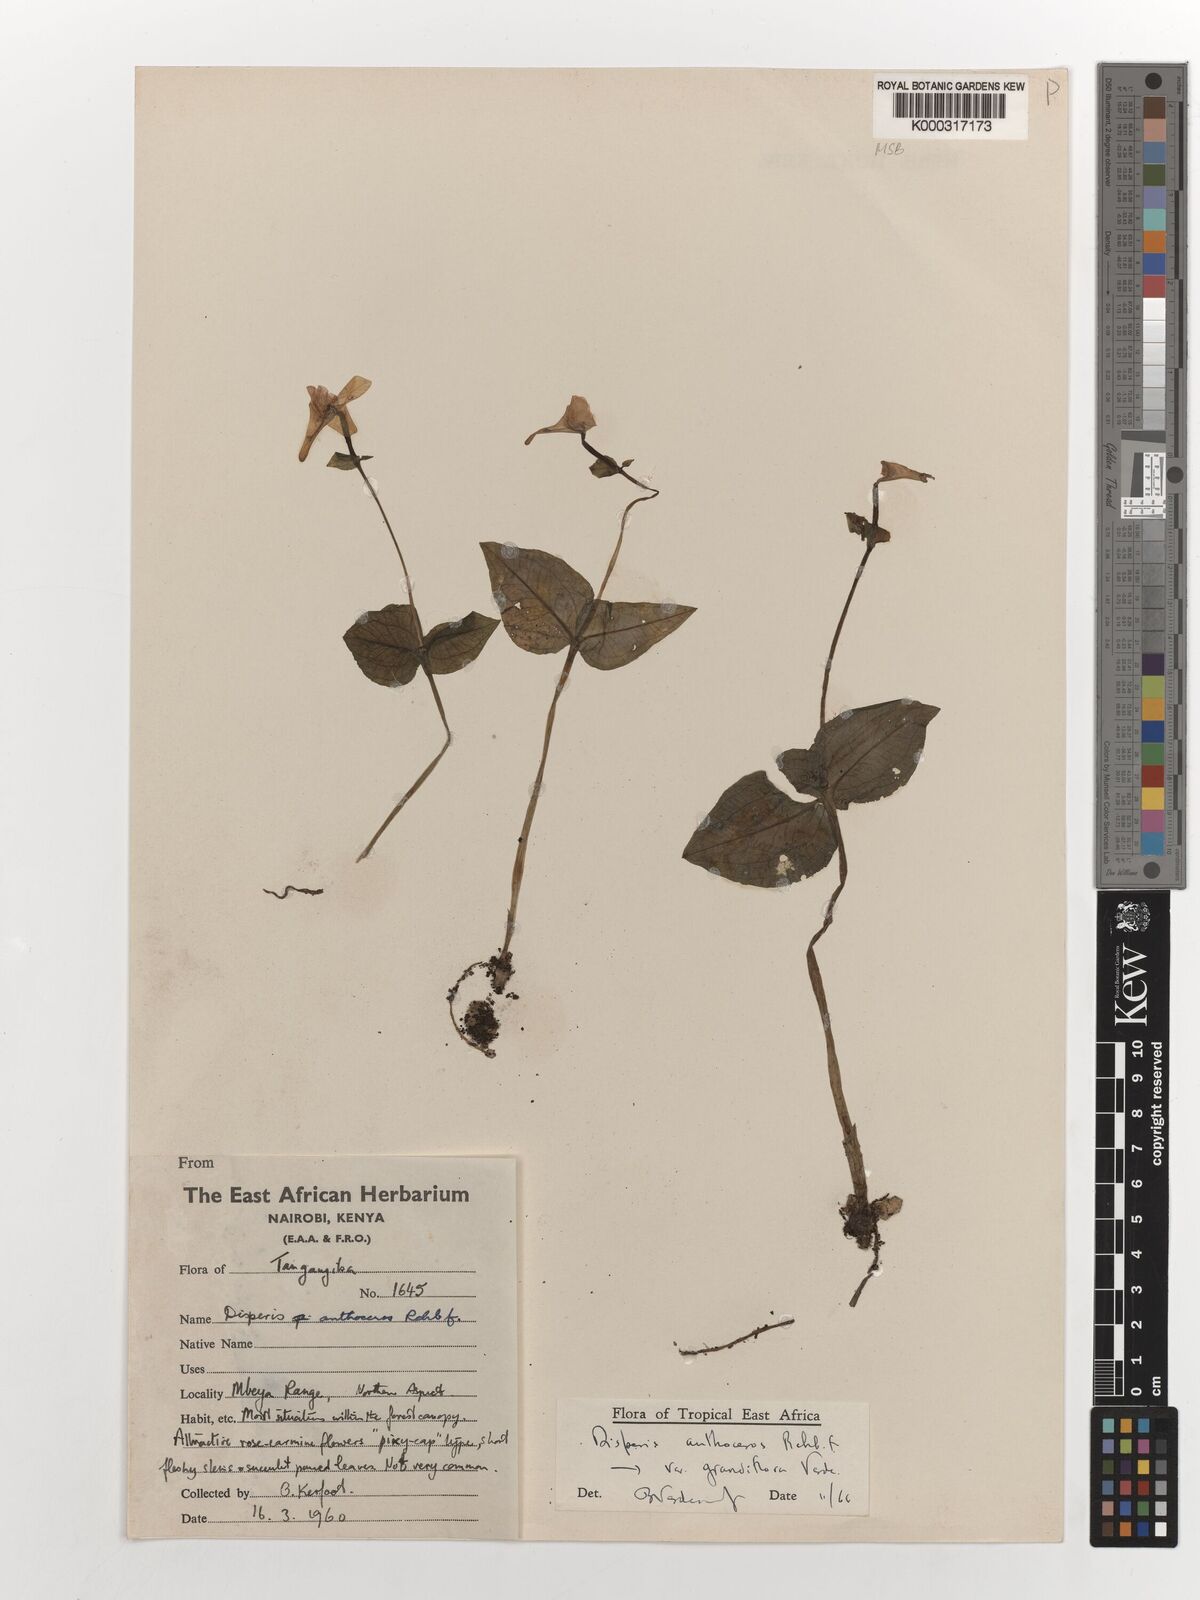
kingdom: Plantae
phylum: Tracheophyta
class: Liliopsida
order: Asparagales
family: Orchidaceae
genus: Disperis
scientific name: Disperis anthoceros
